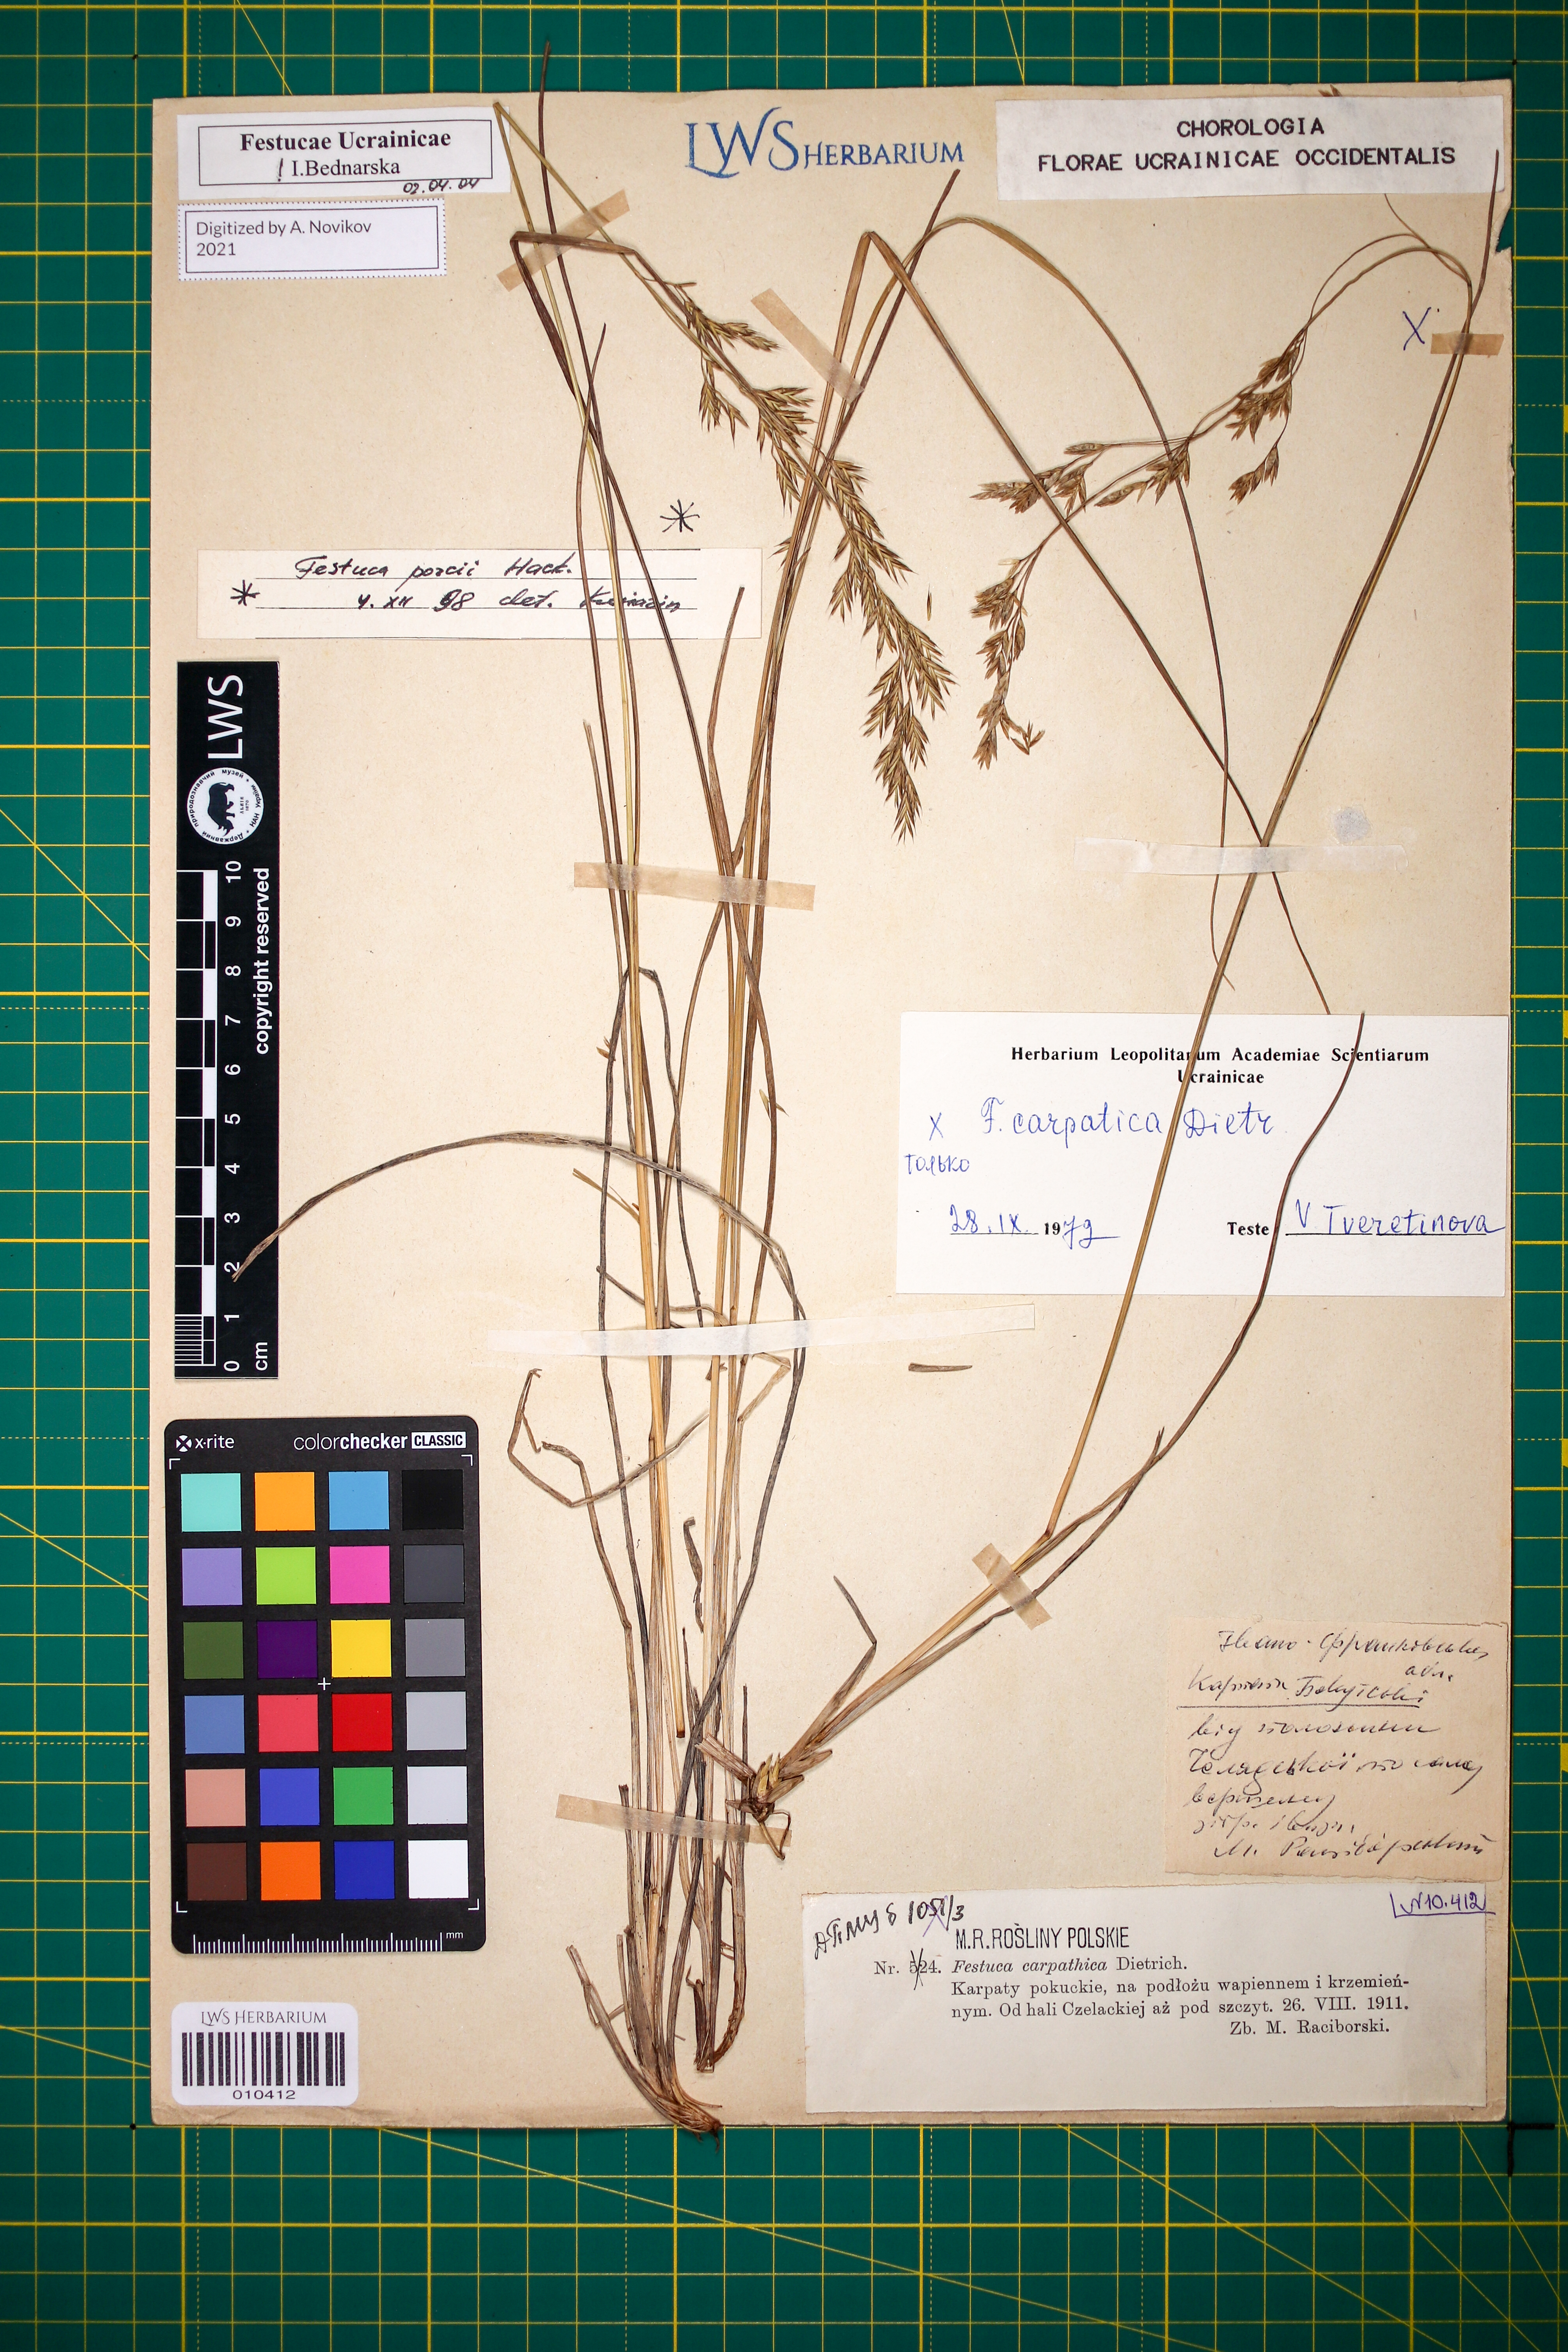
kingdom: Plantae
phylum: Tracheophyta
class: Liliopsida
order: Poales
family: Poaceae
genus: Festuca
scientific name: Festuca carpatica
